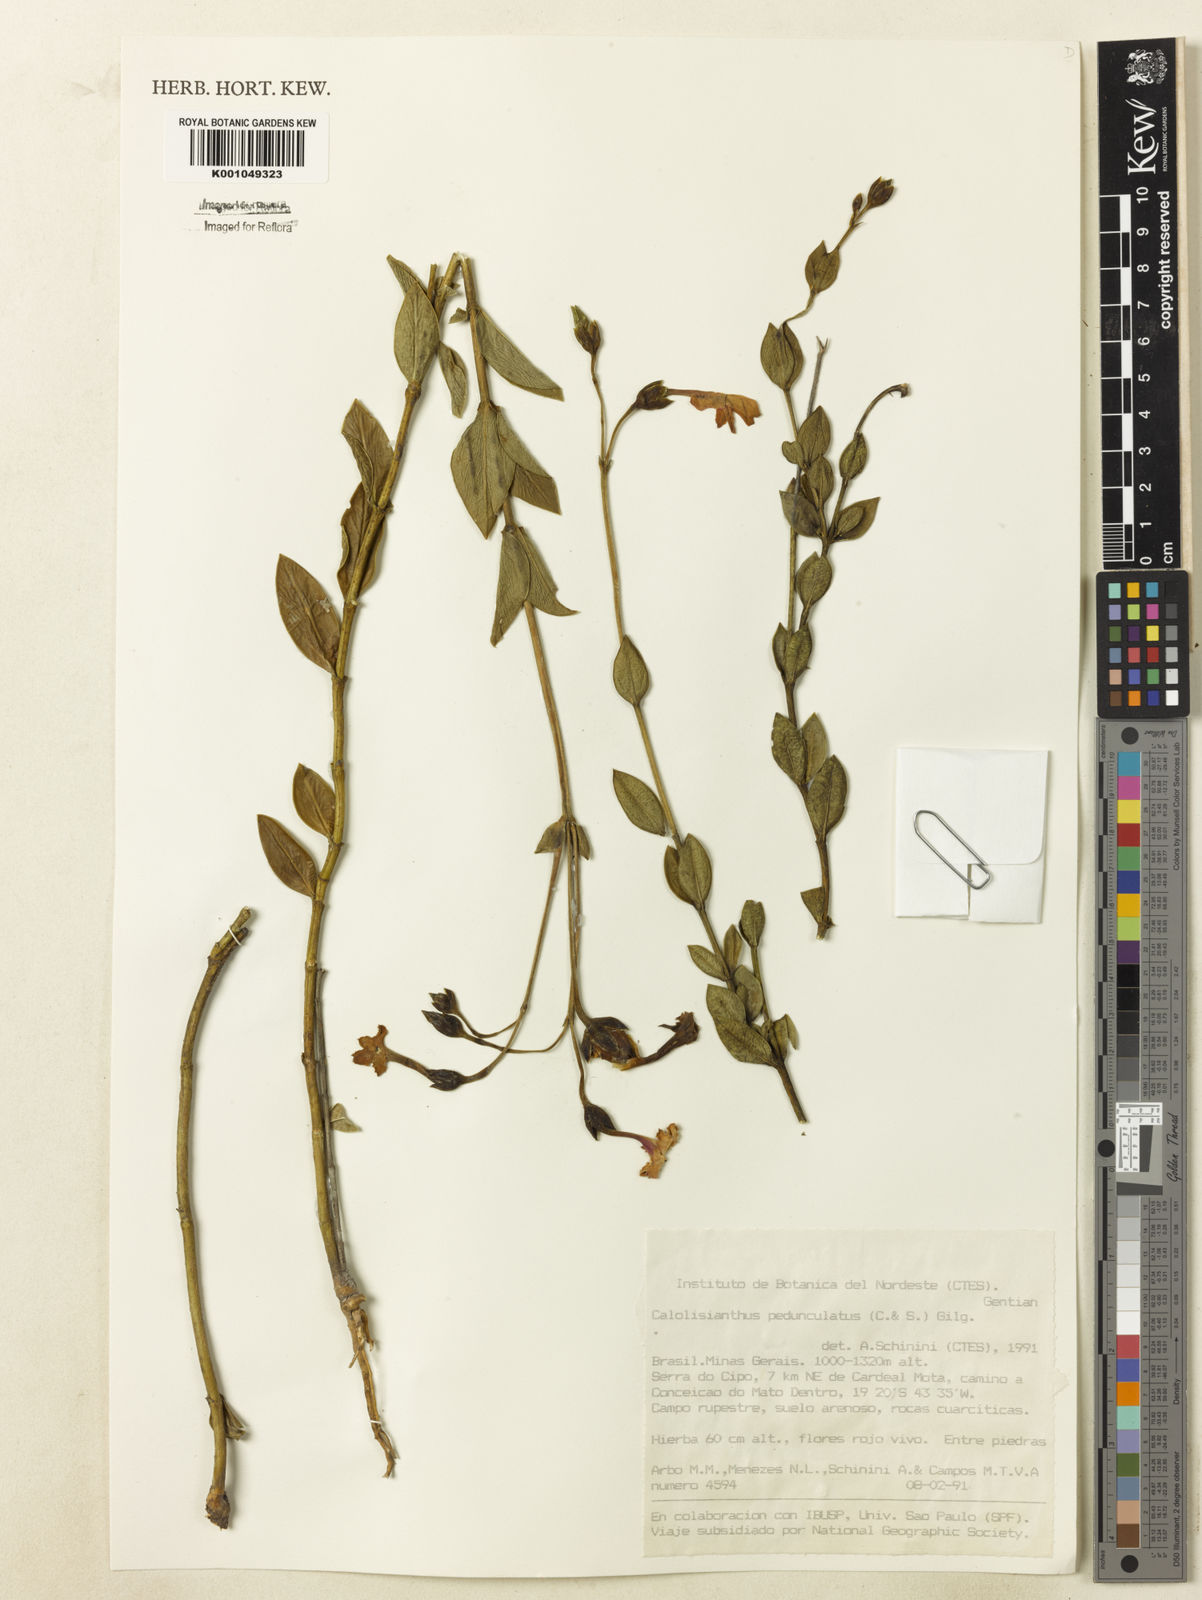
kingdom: Plantae
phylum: Tracheophyta
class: Magnoliopsida
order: Gentianales
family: Gentianaceae
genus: Calolisianthus
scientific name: Calolisianthus
